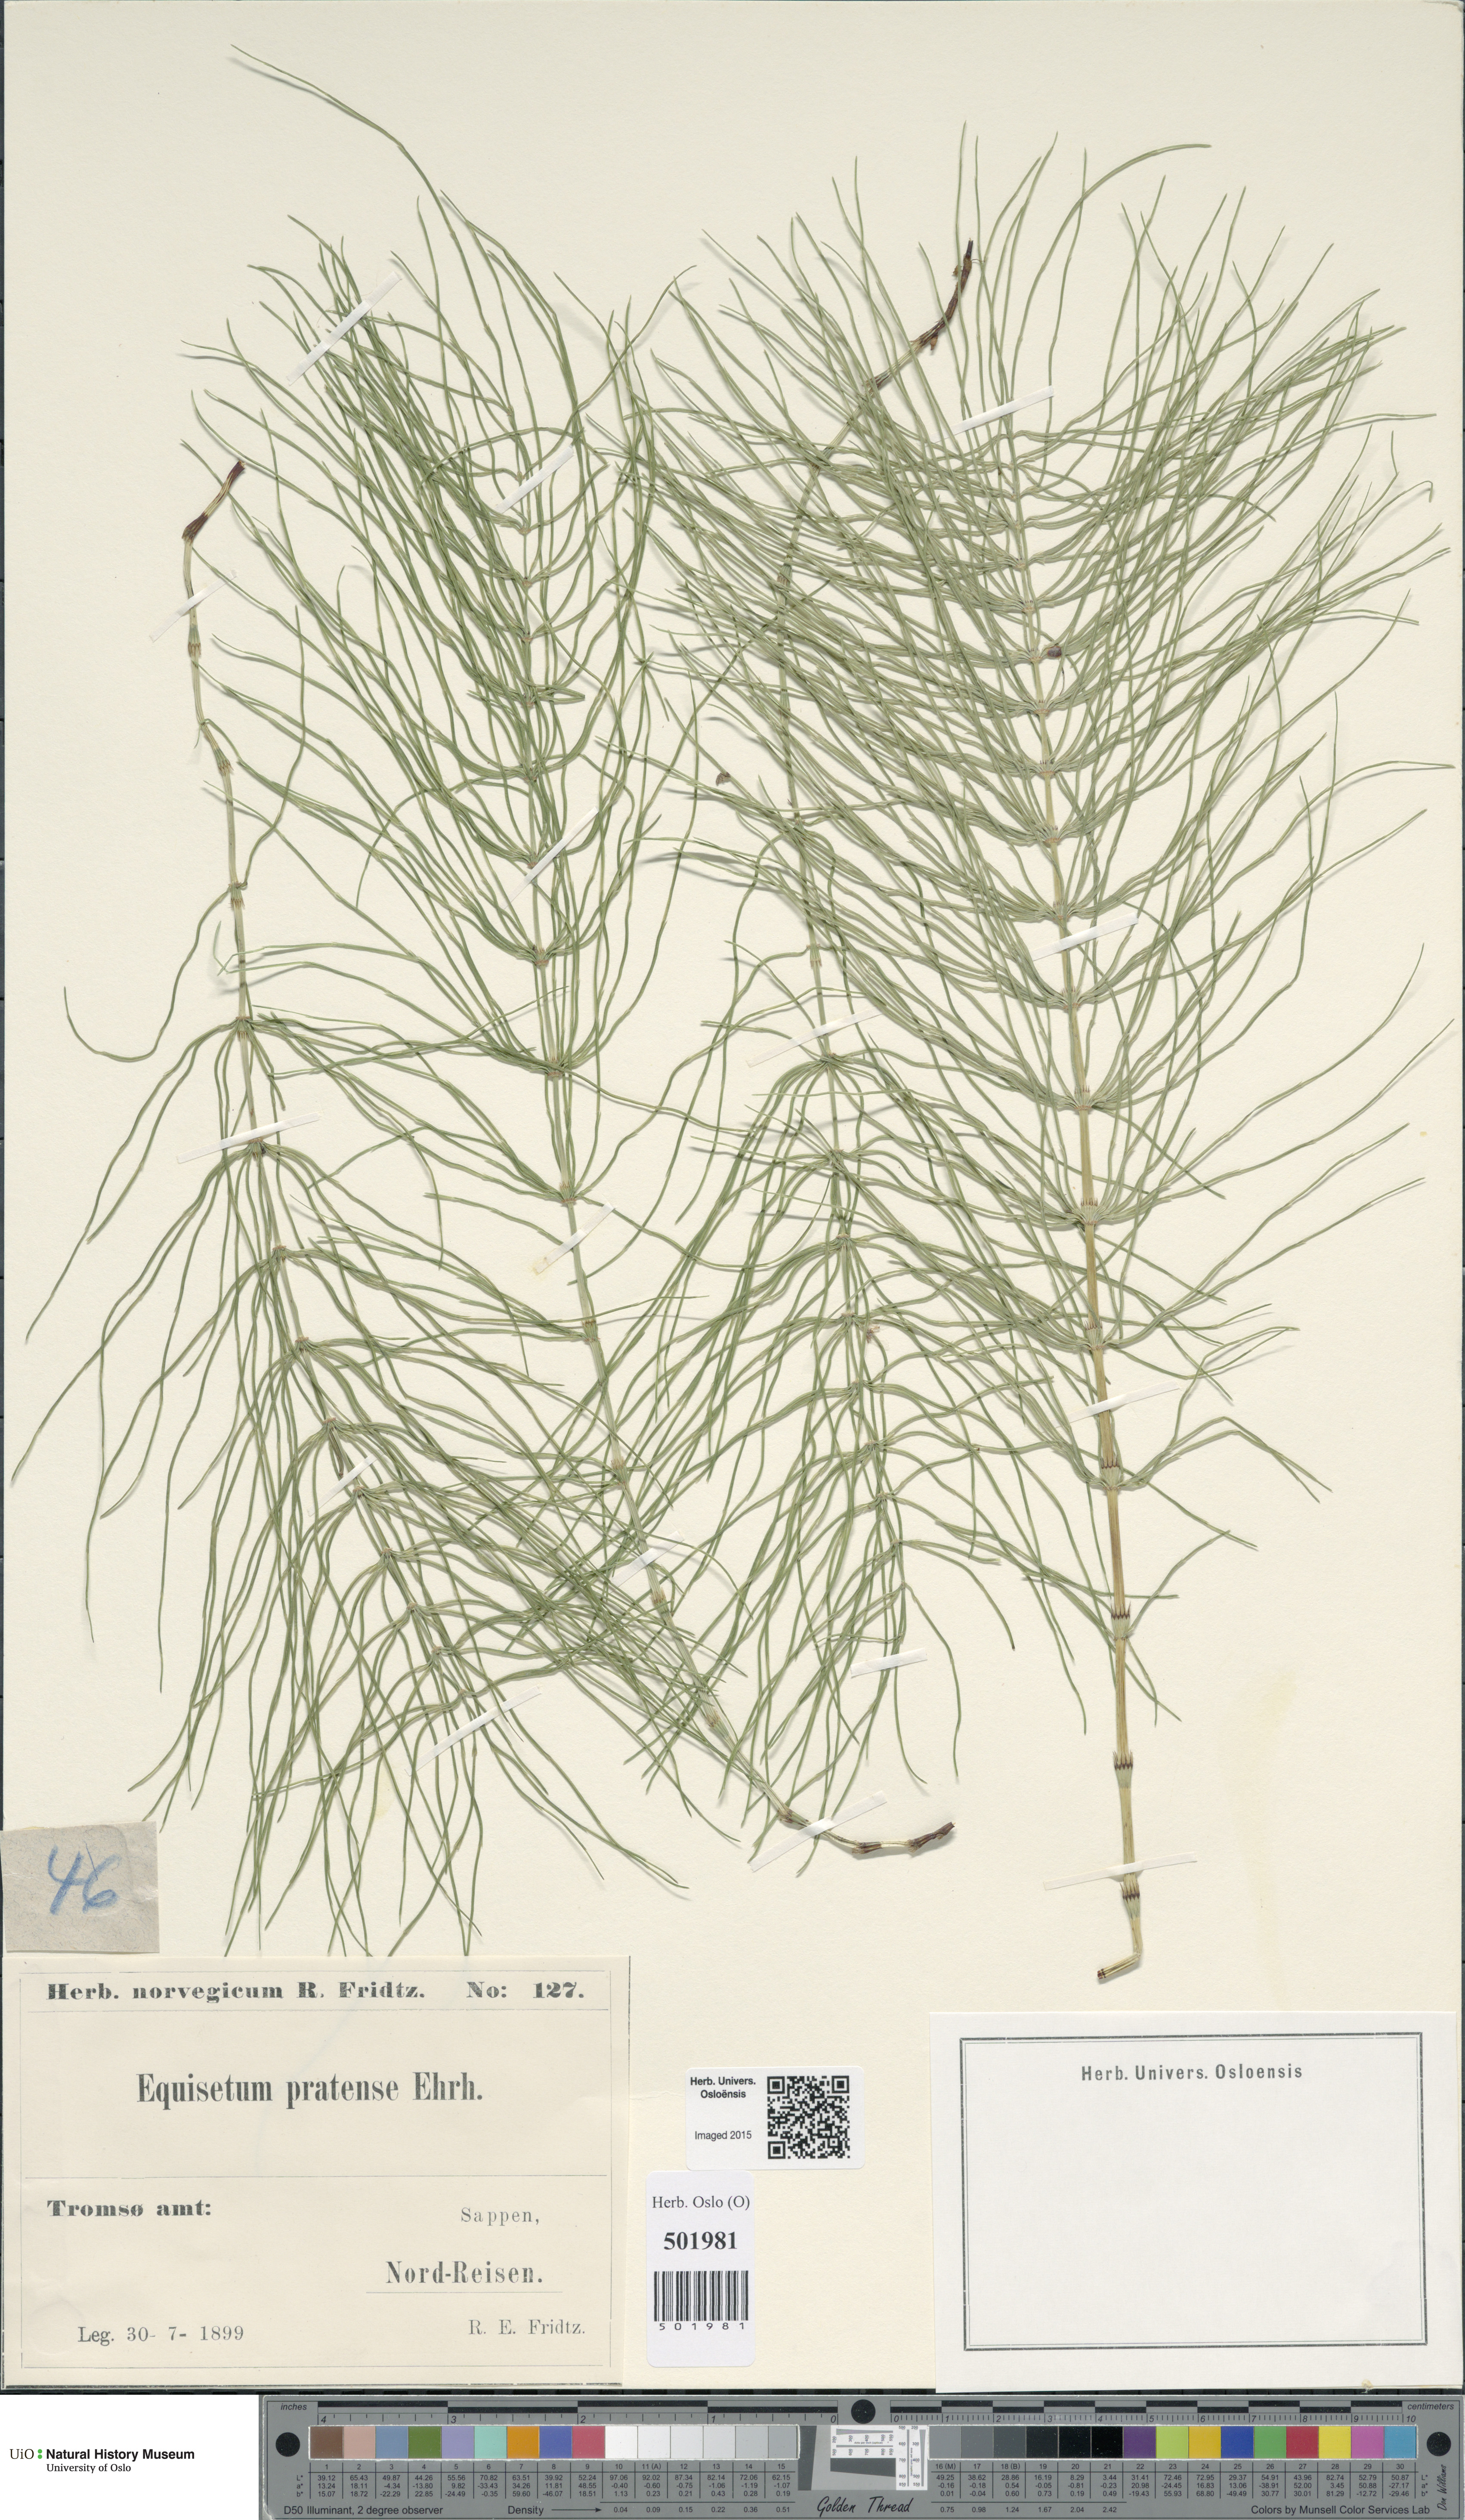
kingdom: Plantae
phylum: Tracheophyta
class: Polypodiopsida
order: Equisetales
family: Equisetaceae
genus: Equisetum
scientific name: Equisetum pratense
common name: Meadow horsetail
